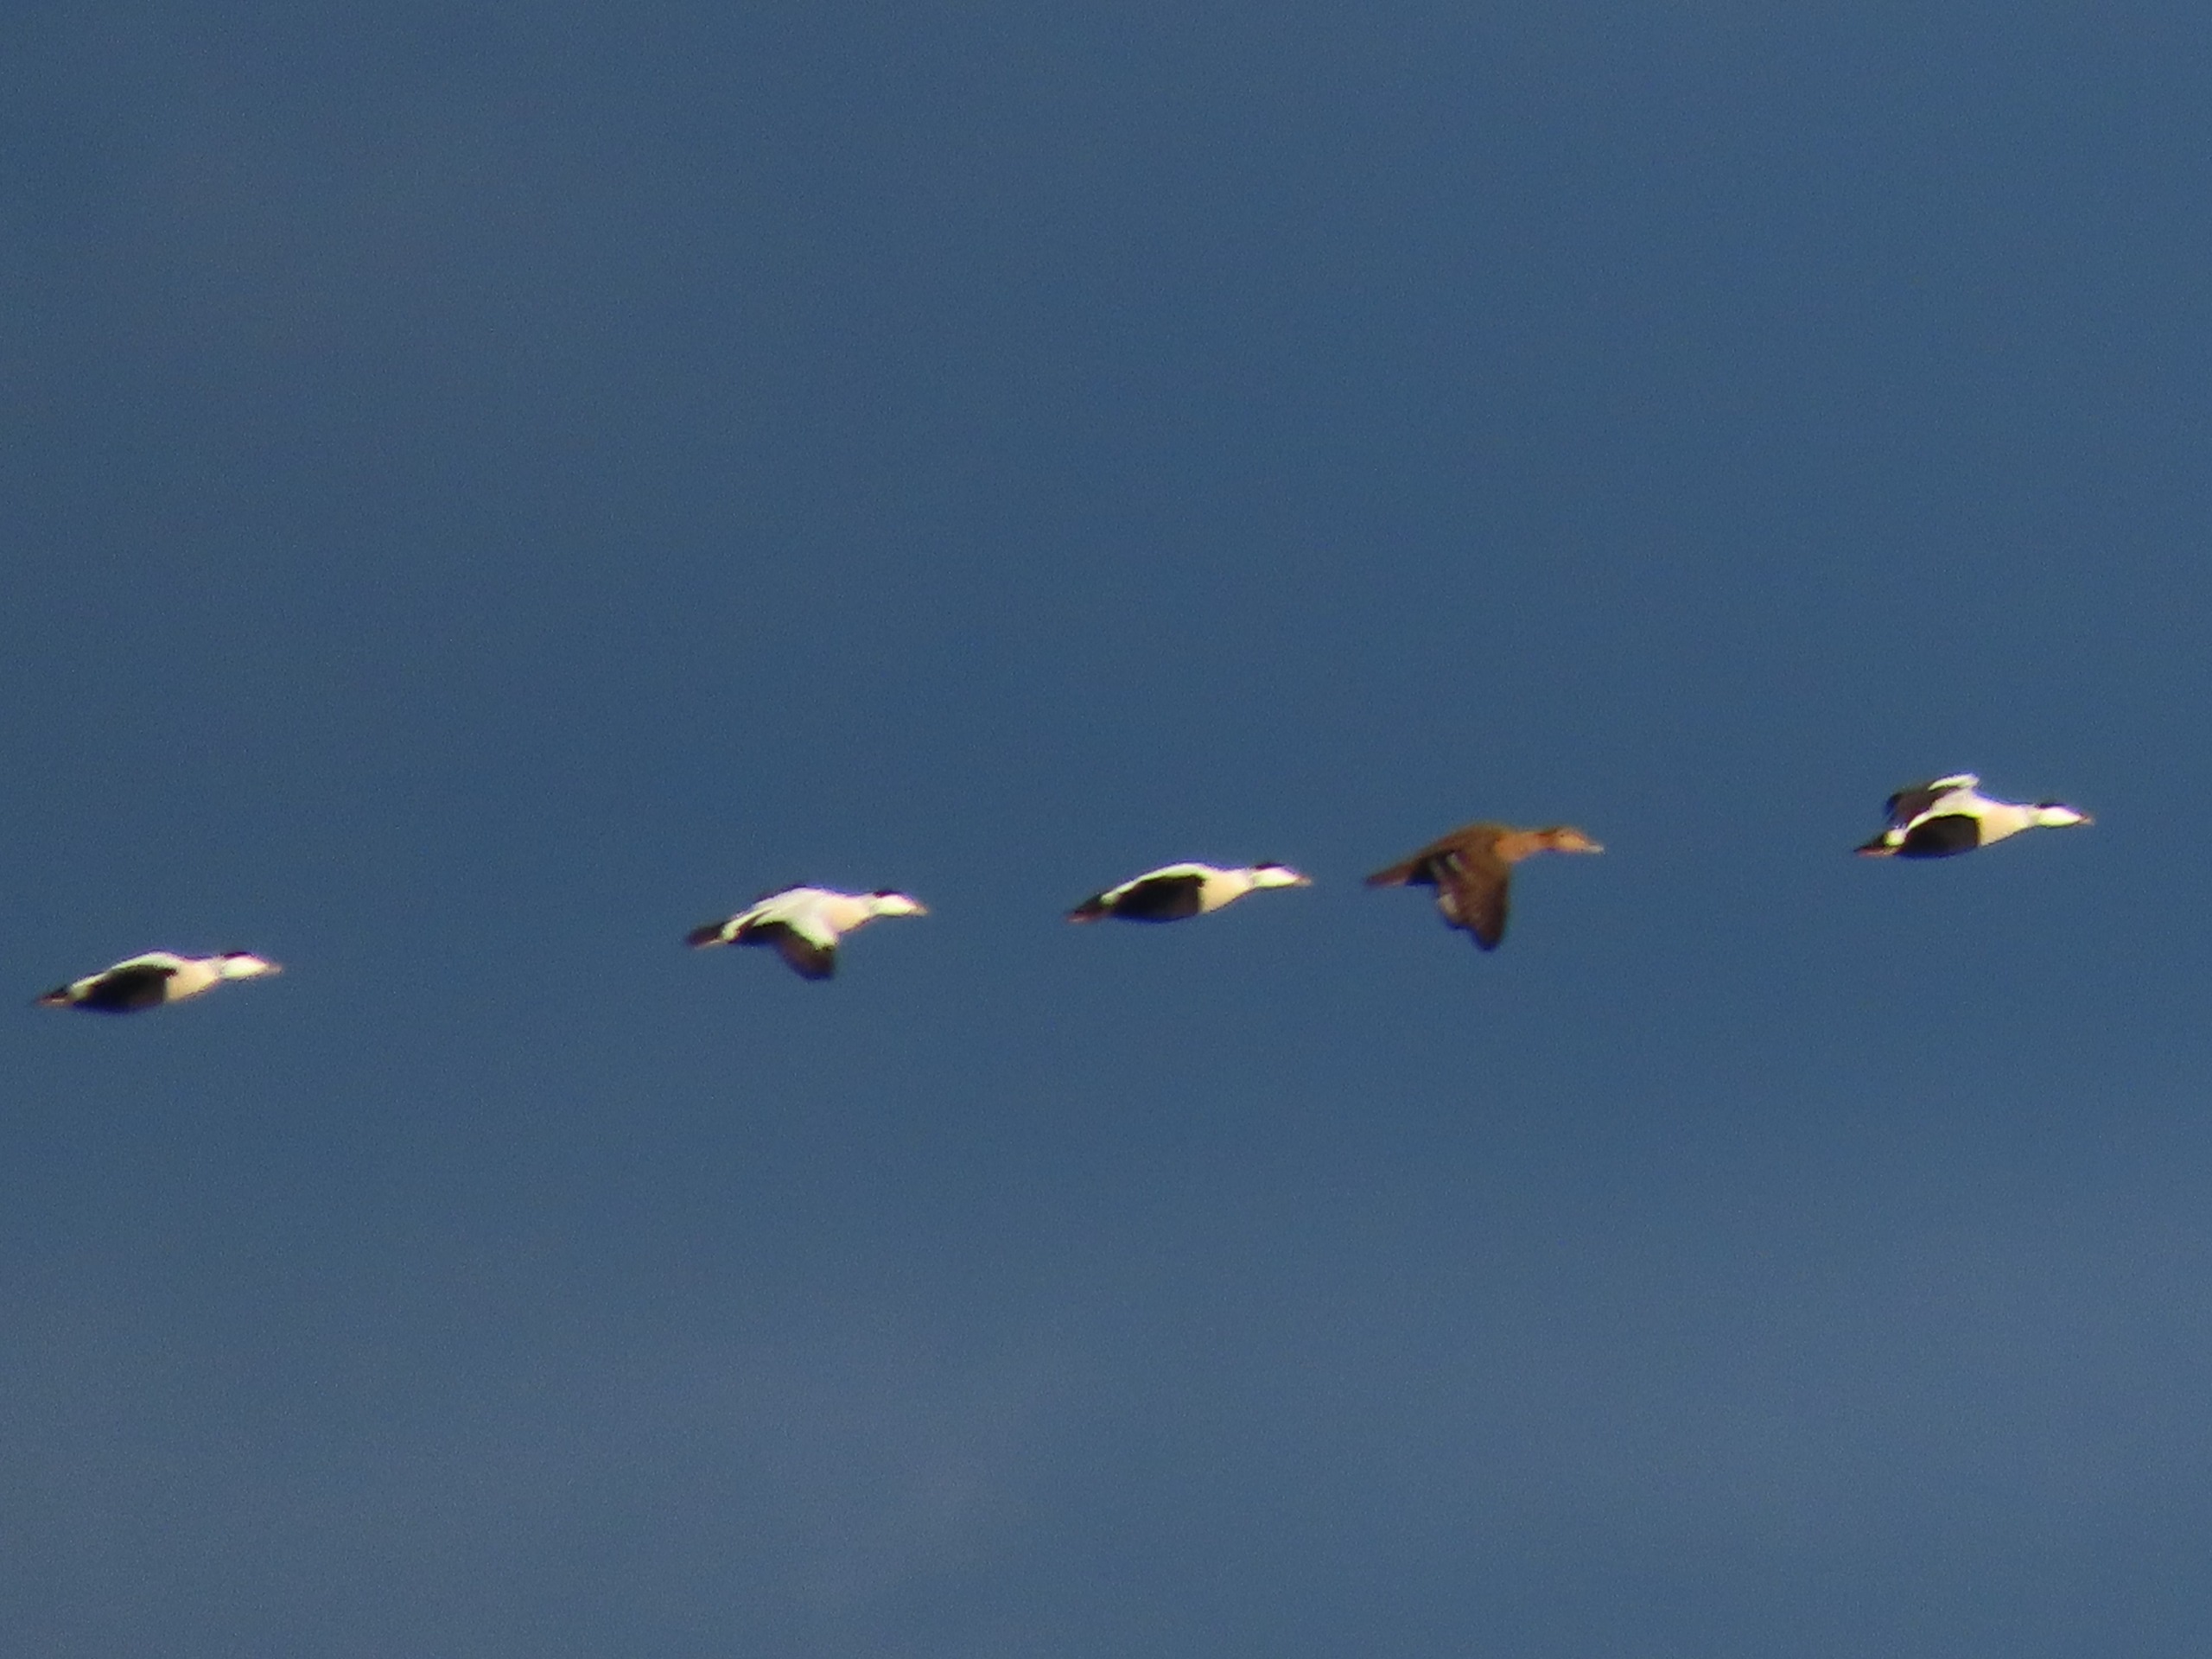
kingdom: Animalia
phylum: Chordata
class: Aves
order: Anseriformes
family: Anatidae
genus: Somateria
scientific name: Somateria mollissima
